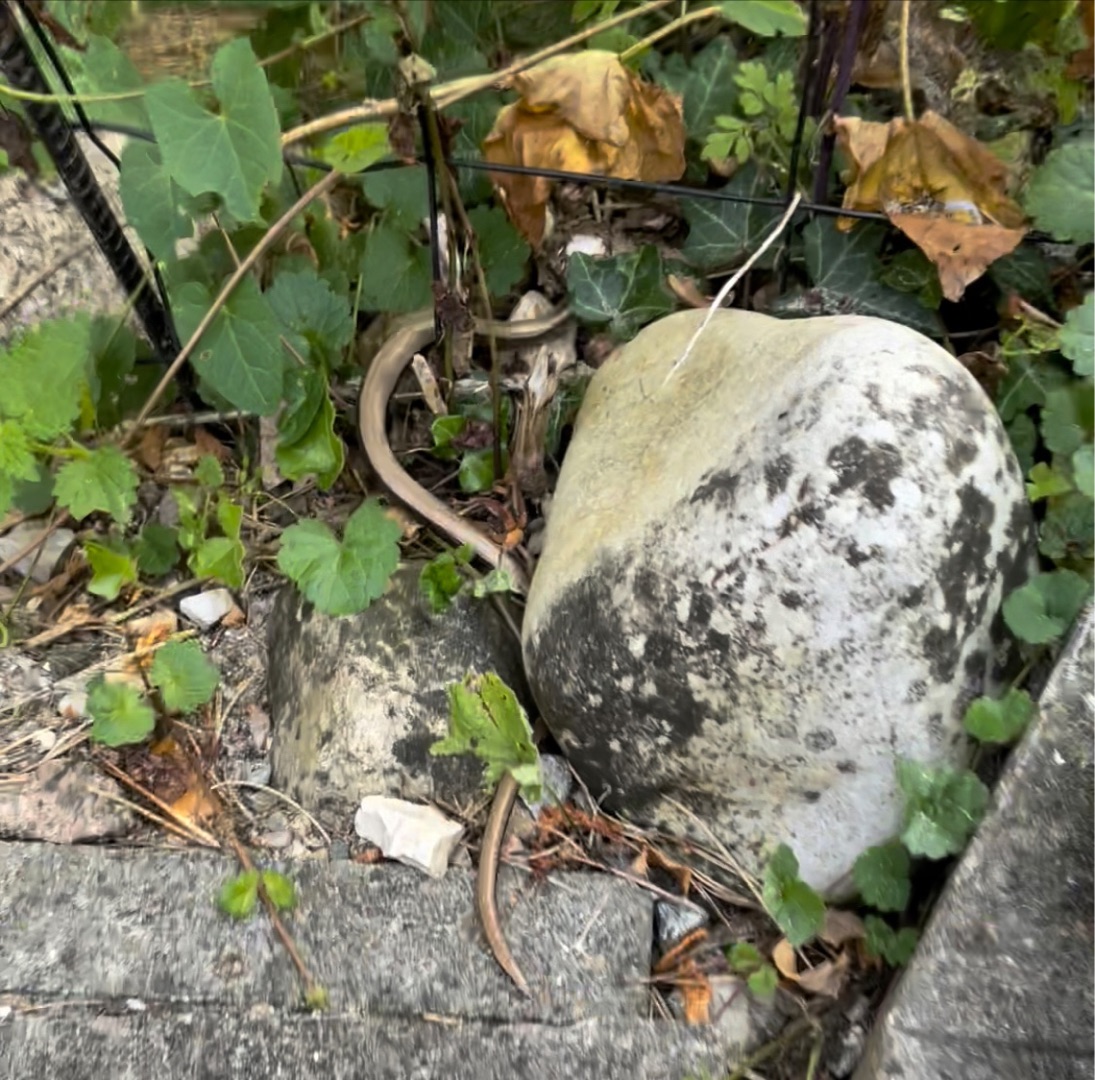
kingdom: Animalia
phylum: Chordata
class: Squamata
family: Anguidae
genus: Anguis
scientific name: Anguis fragilis
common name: Stålorm
